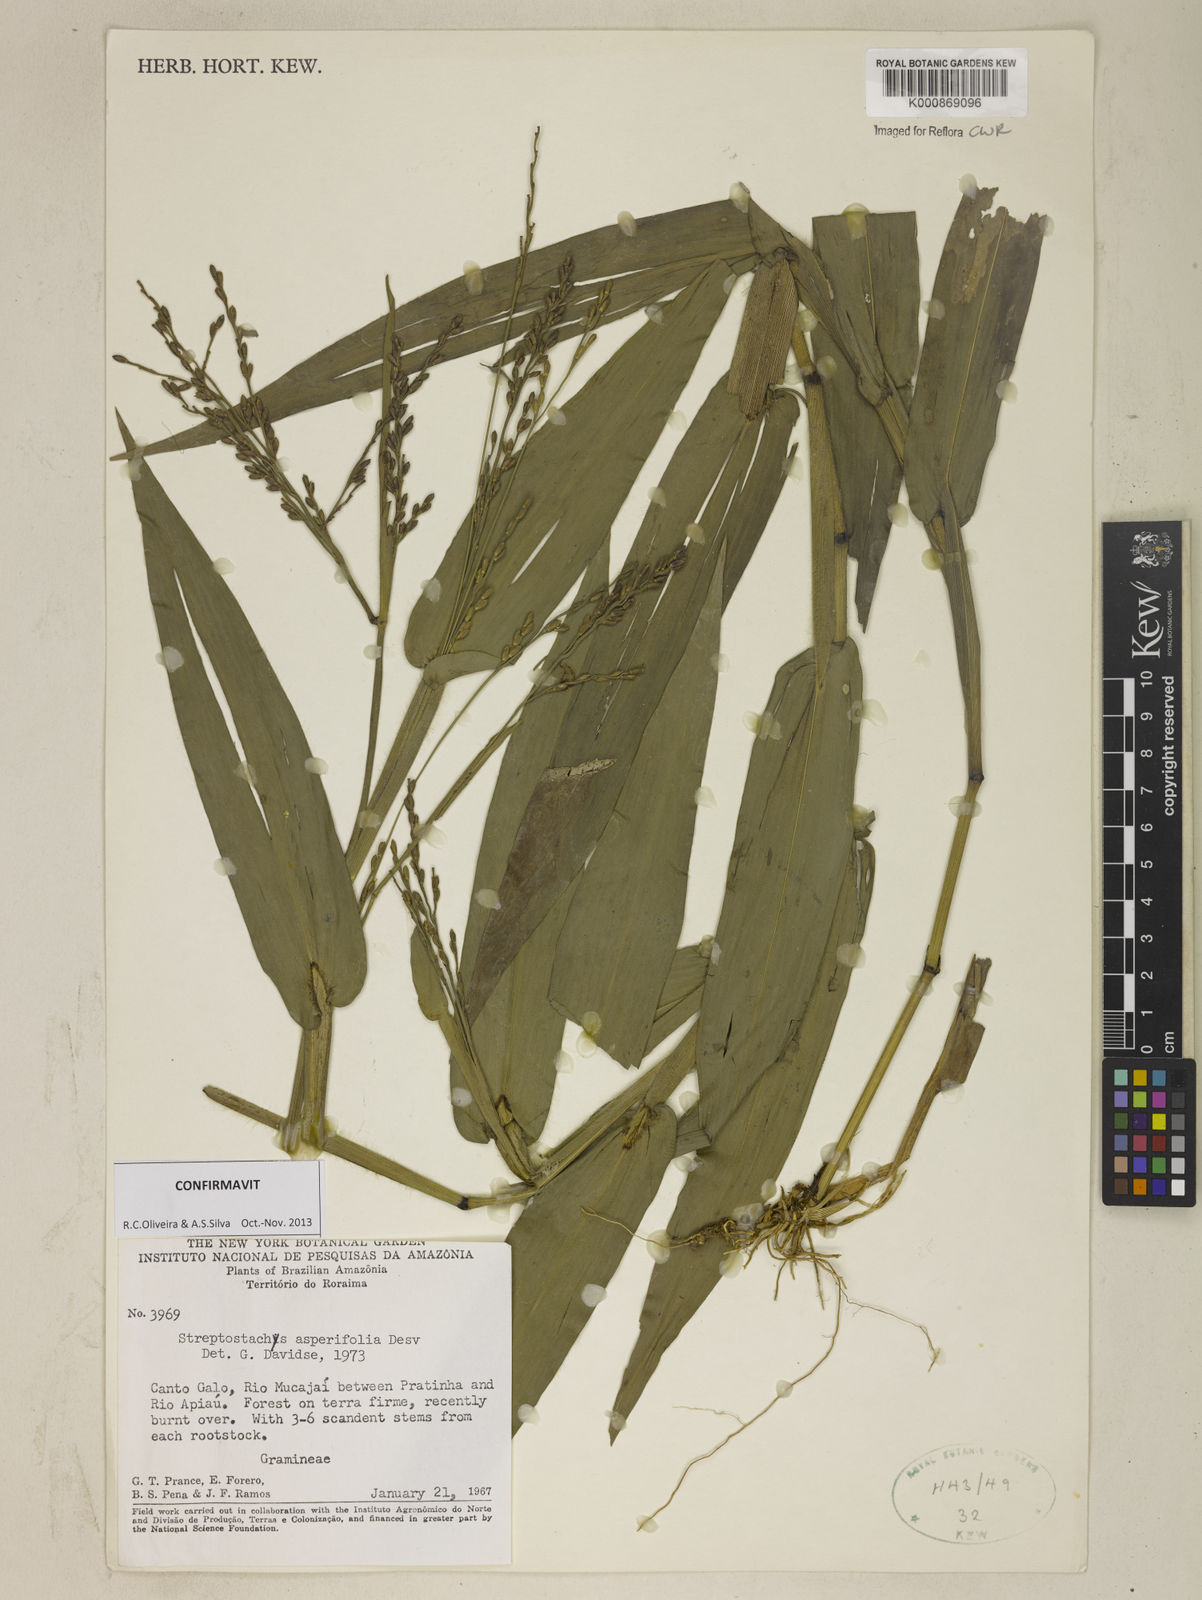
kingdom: Plantae
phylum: Tracheophyta
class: Liliopsida
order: Poales
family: Poaceae
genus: Streptostachys
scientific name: Streptostachys asperifolia
